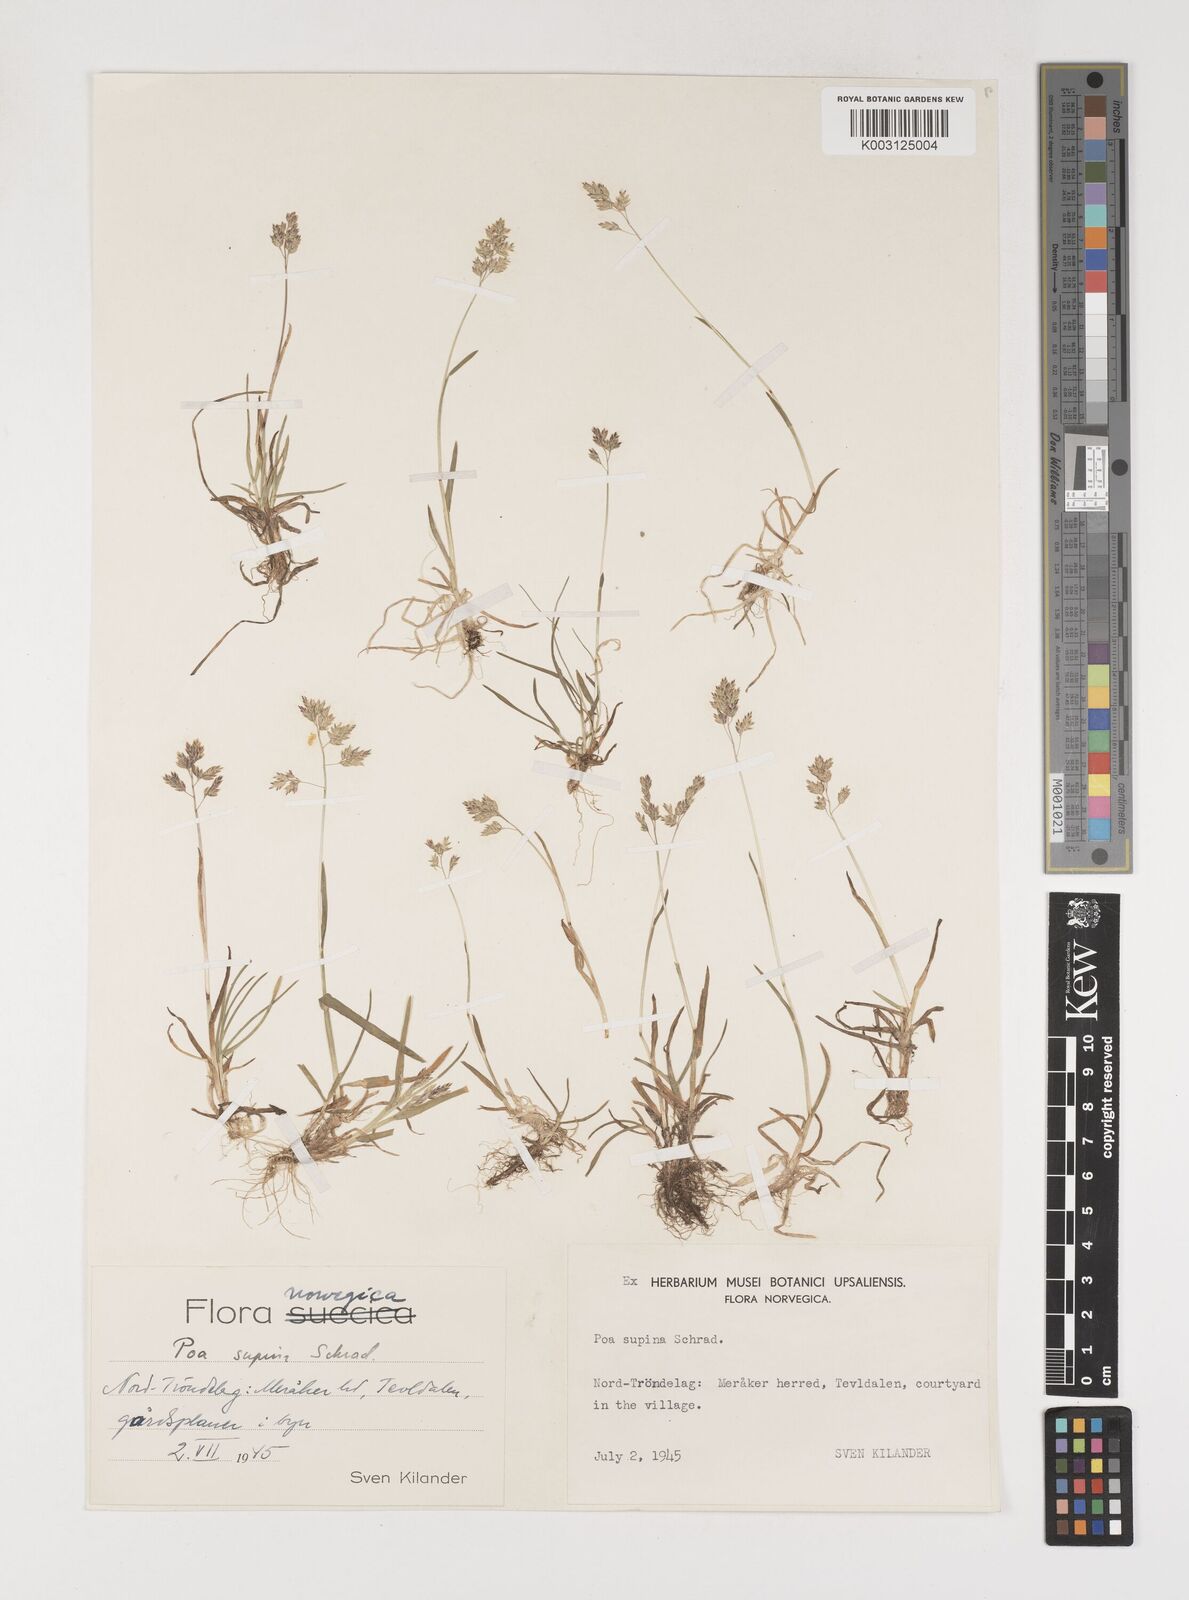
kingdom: Plantae
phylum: Tracheophyta
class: Liliopsida
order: Poales
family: Poaceae
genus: Poa
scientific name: Poa supina
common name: Supina bluegrass
